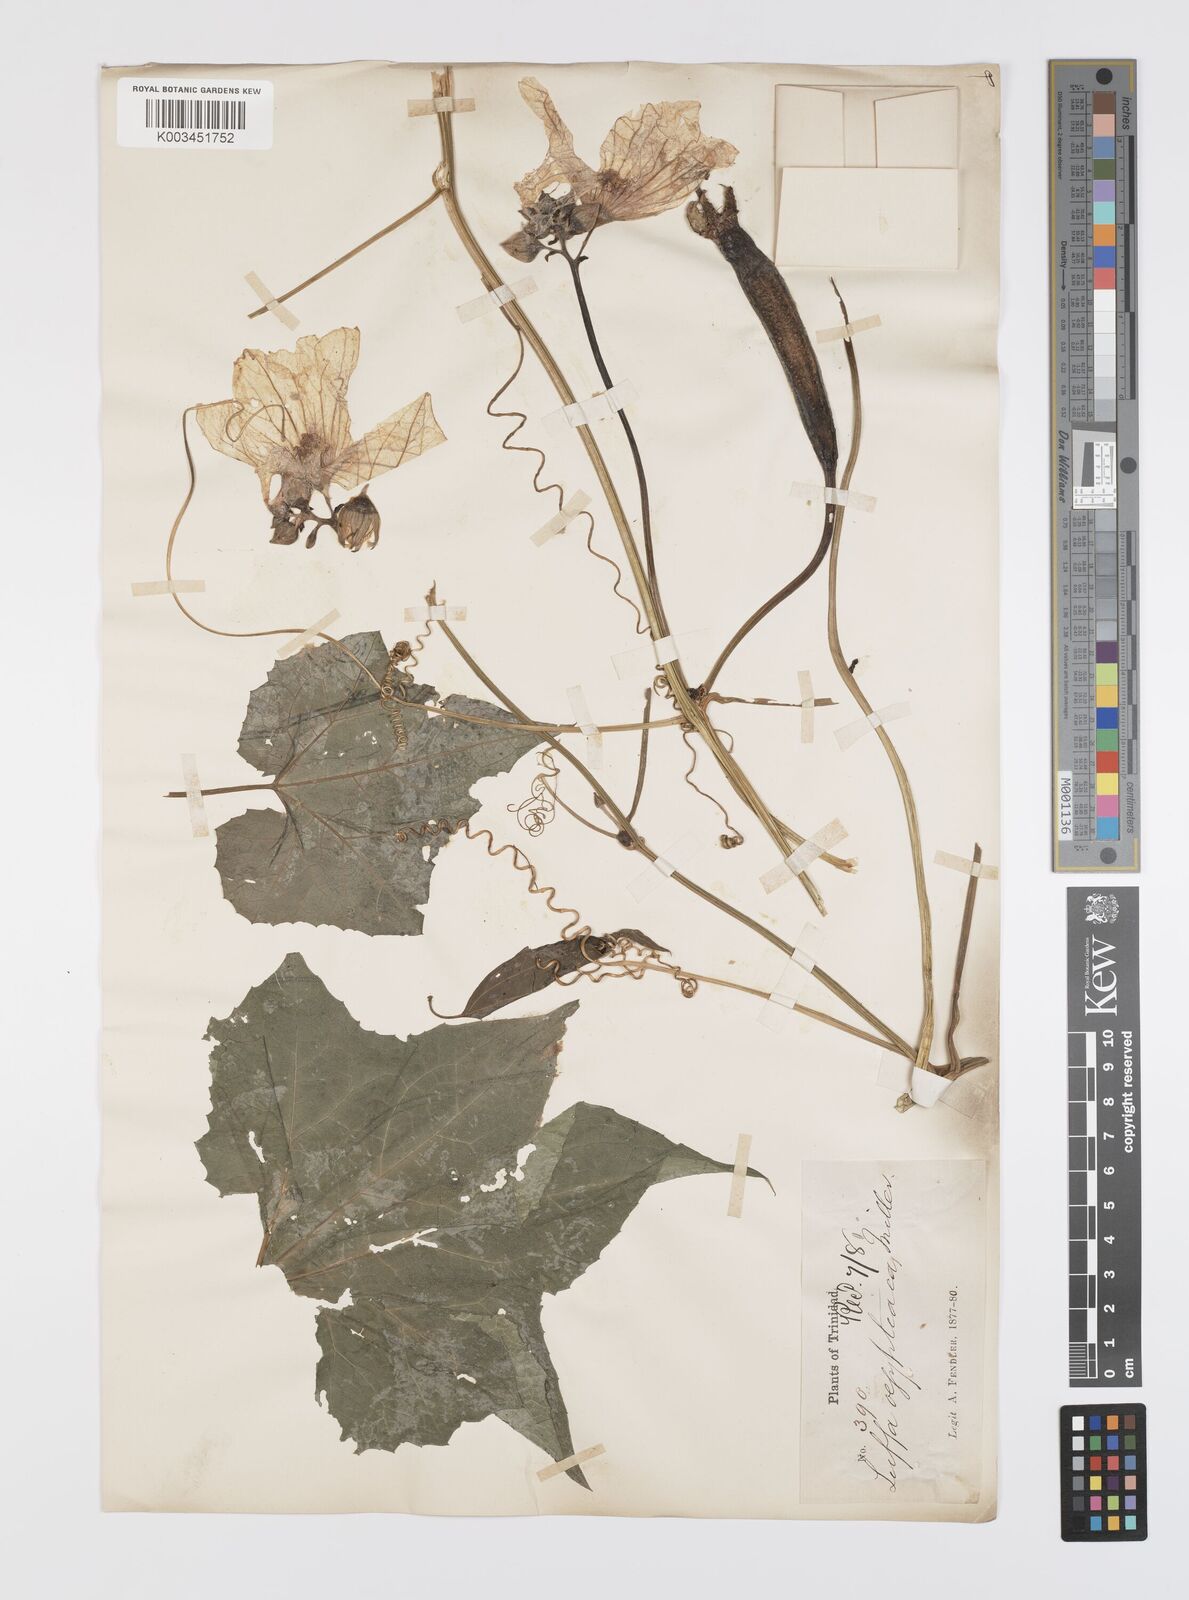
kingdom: Plantae
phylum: Tracheophyta
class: Magnoliopsida
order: Cucurbitales
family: Cucurbitaceae
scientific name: Cucurbitaceae
